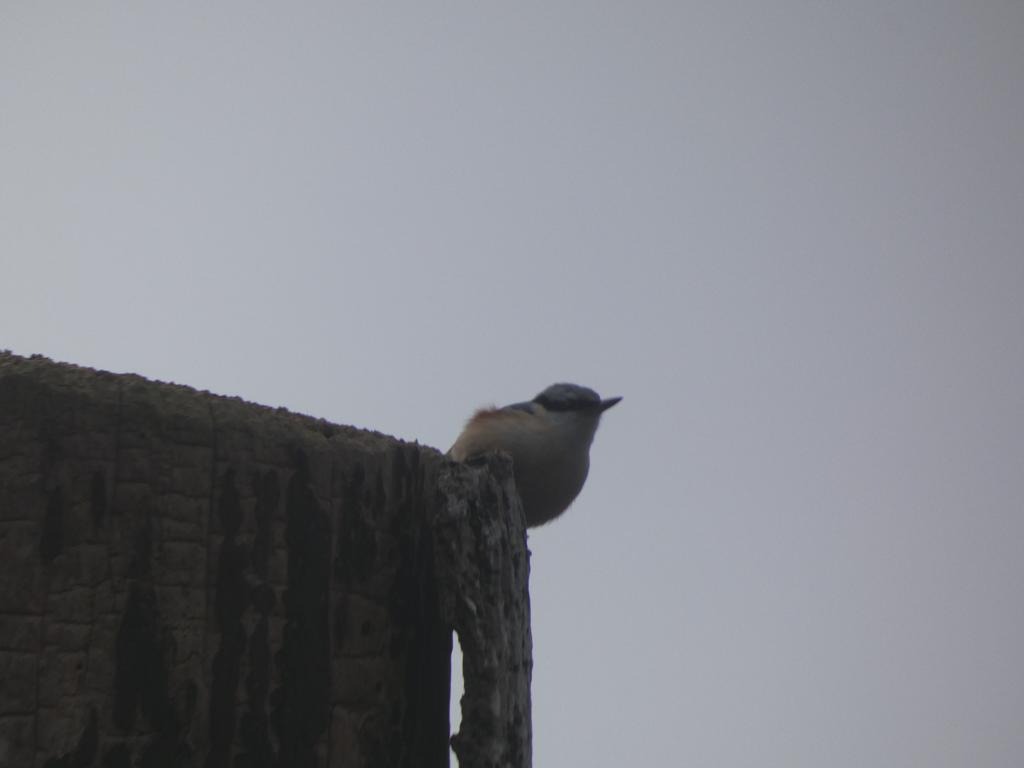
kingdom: Animalia
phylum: Chordata
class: Aves
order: Passeriformes
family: Sittidae
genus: Sitta
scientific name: Sitta europaea
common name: Spætmejse
